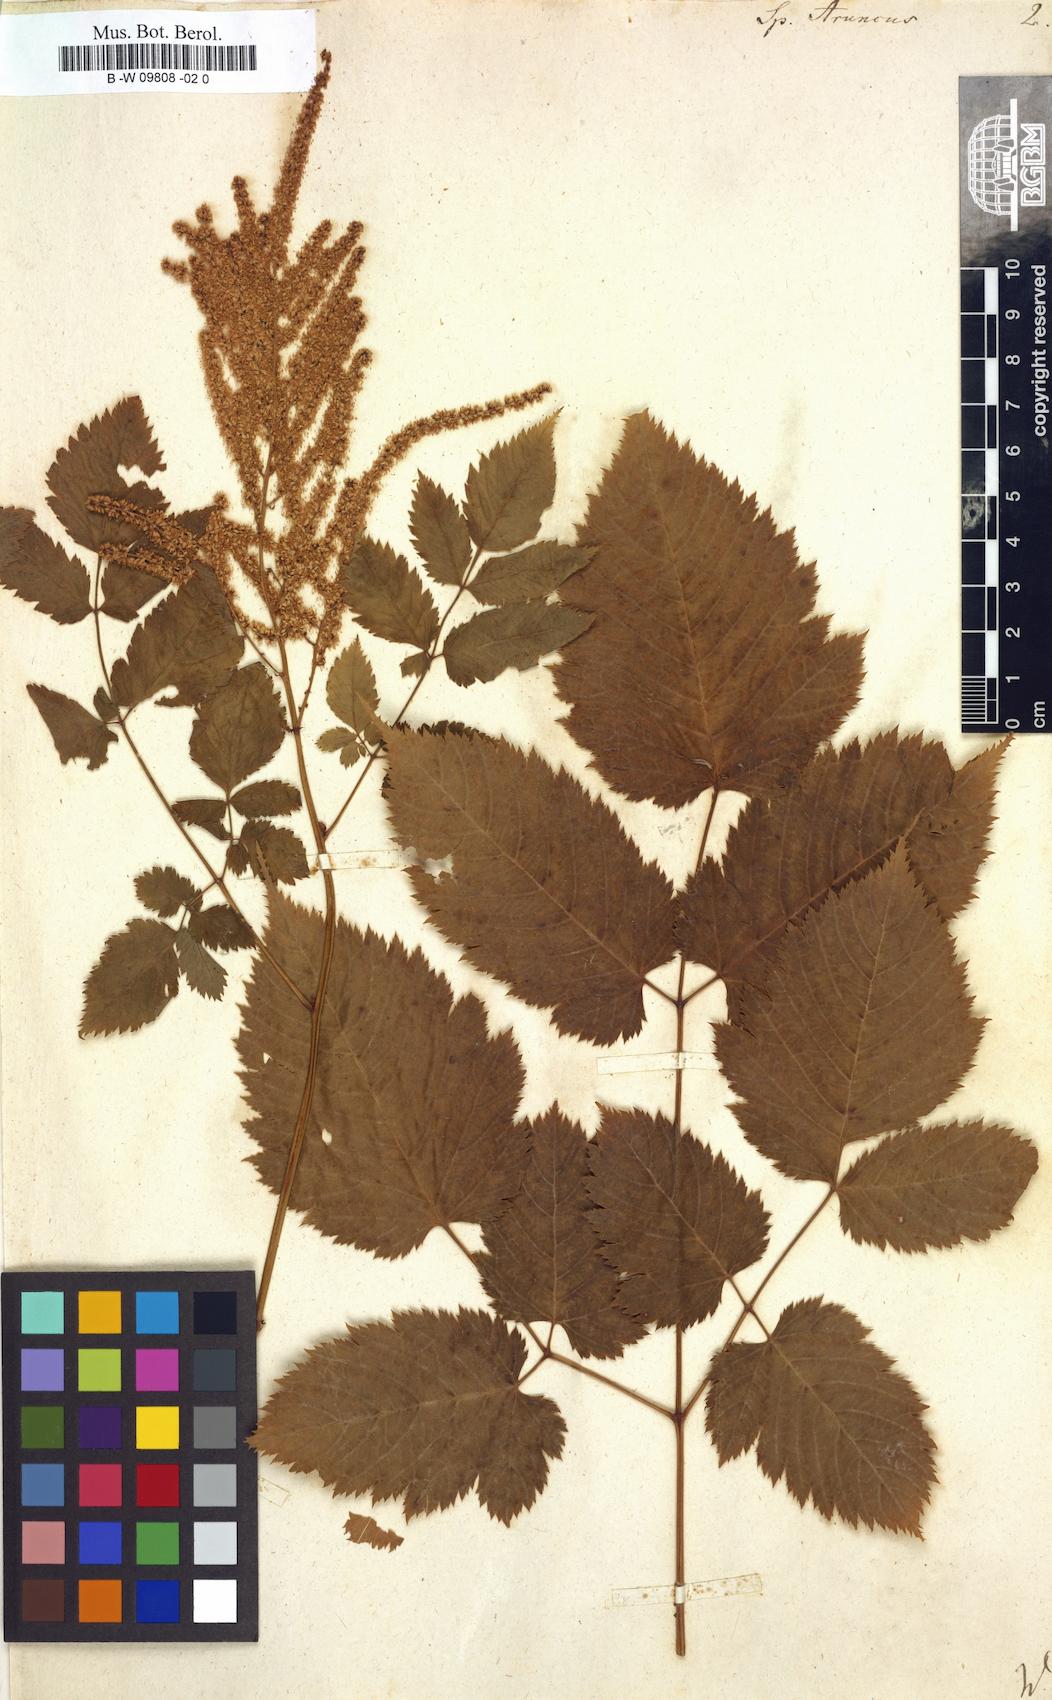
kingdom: Plantae
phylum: Tracheophyta
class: Magnoliopsida
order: Rosales
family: Rosaceae
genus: Aruncus
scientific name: Aruncus dioicus
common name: Buck's-beard
